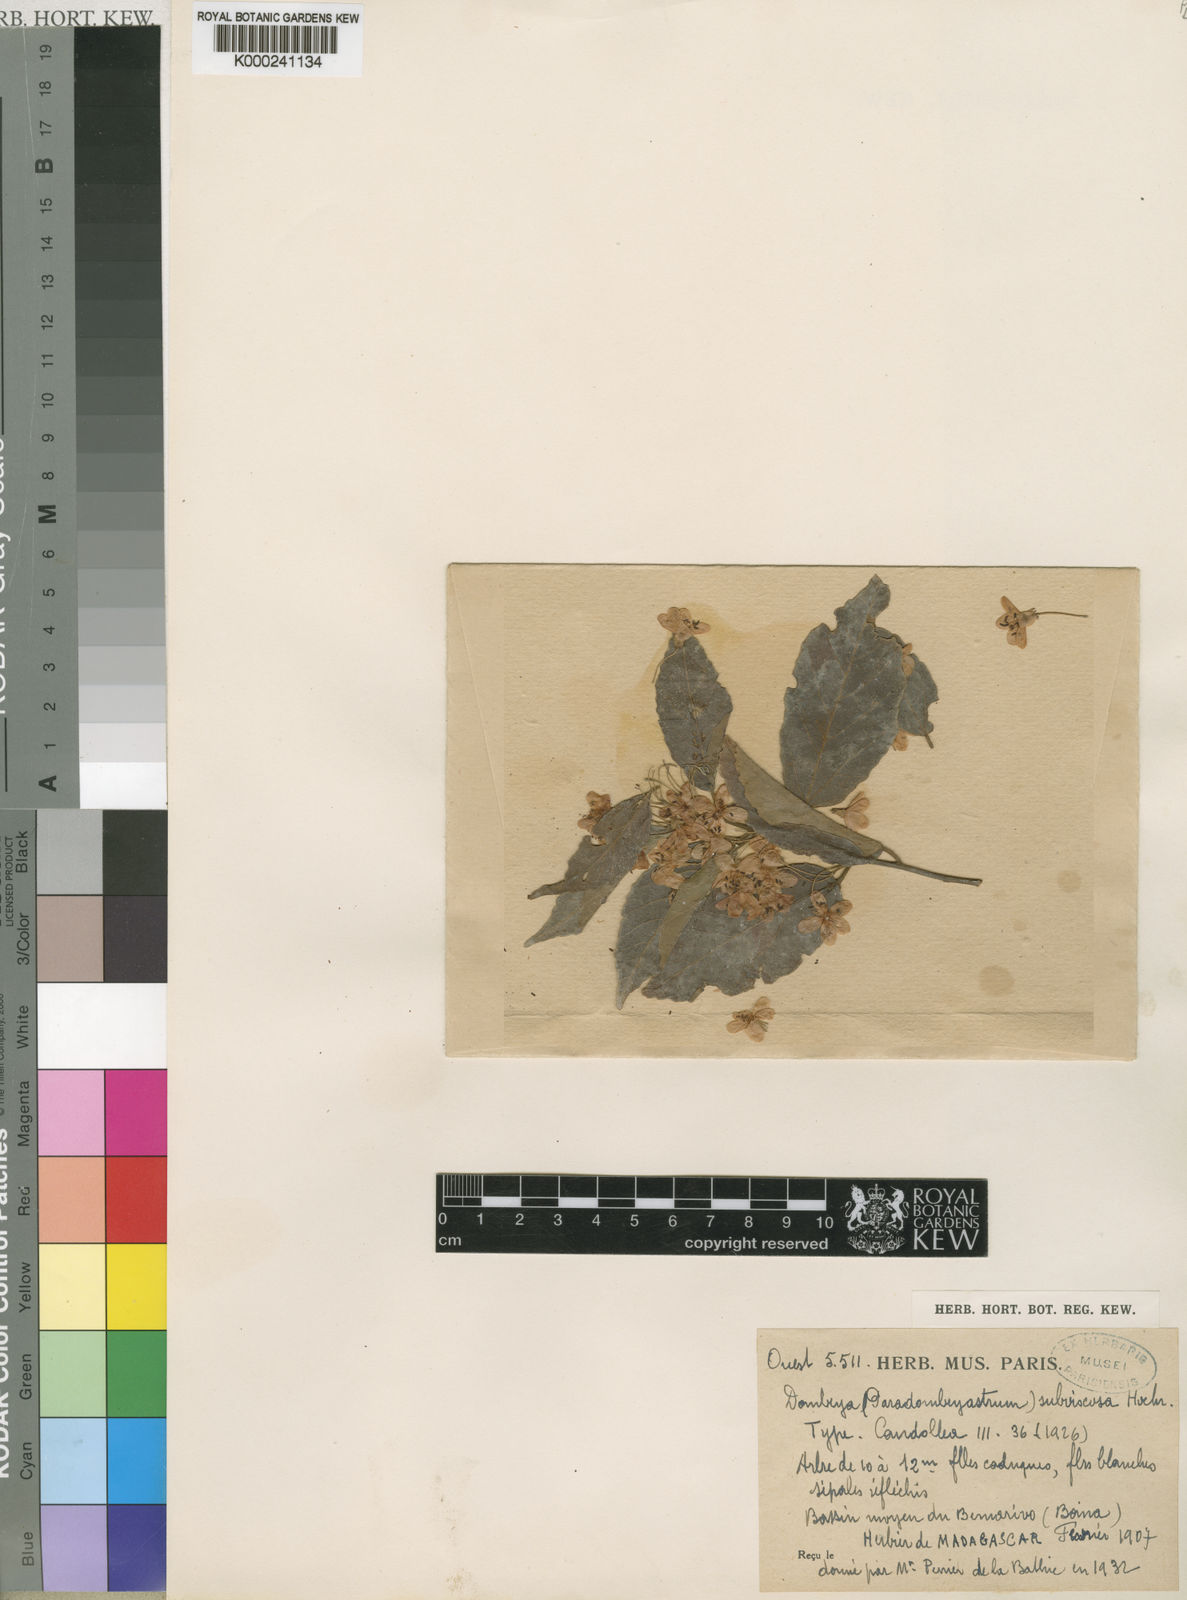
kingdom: Plantae
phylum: Tracheophyta
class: Magnoliopsida
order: Malvales
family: Malvaceae
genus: Dombeya
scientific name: Dombeya subviscosa
